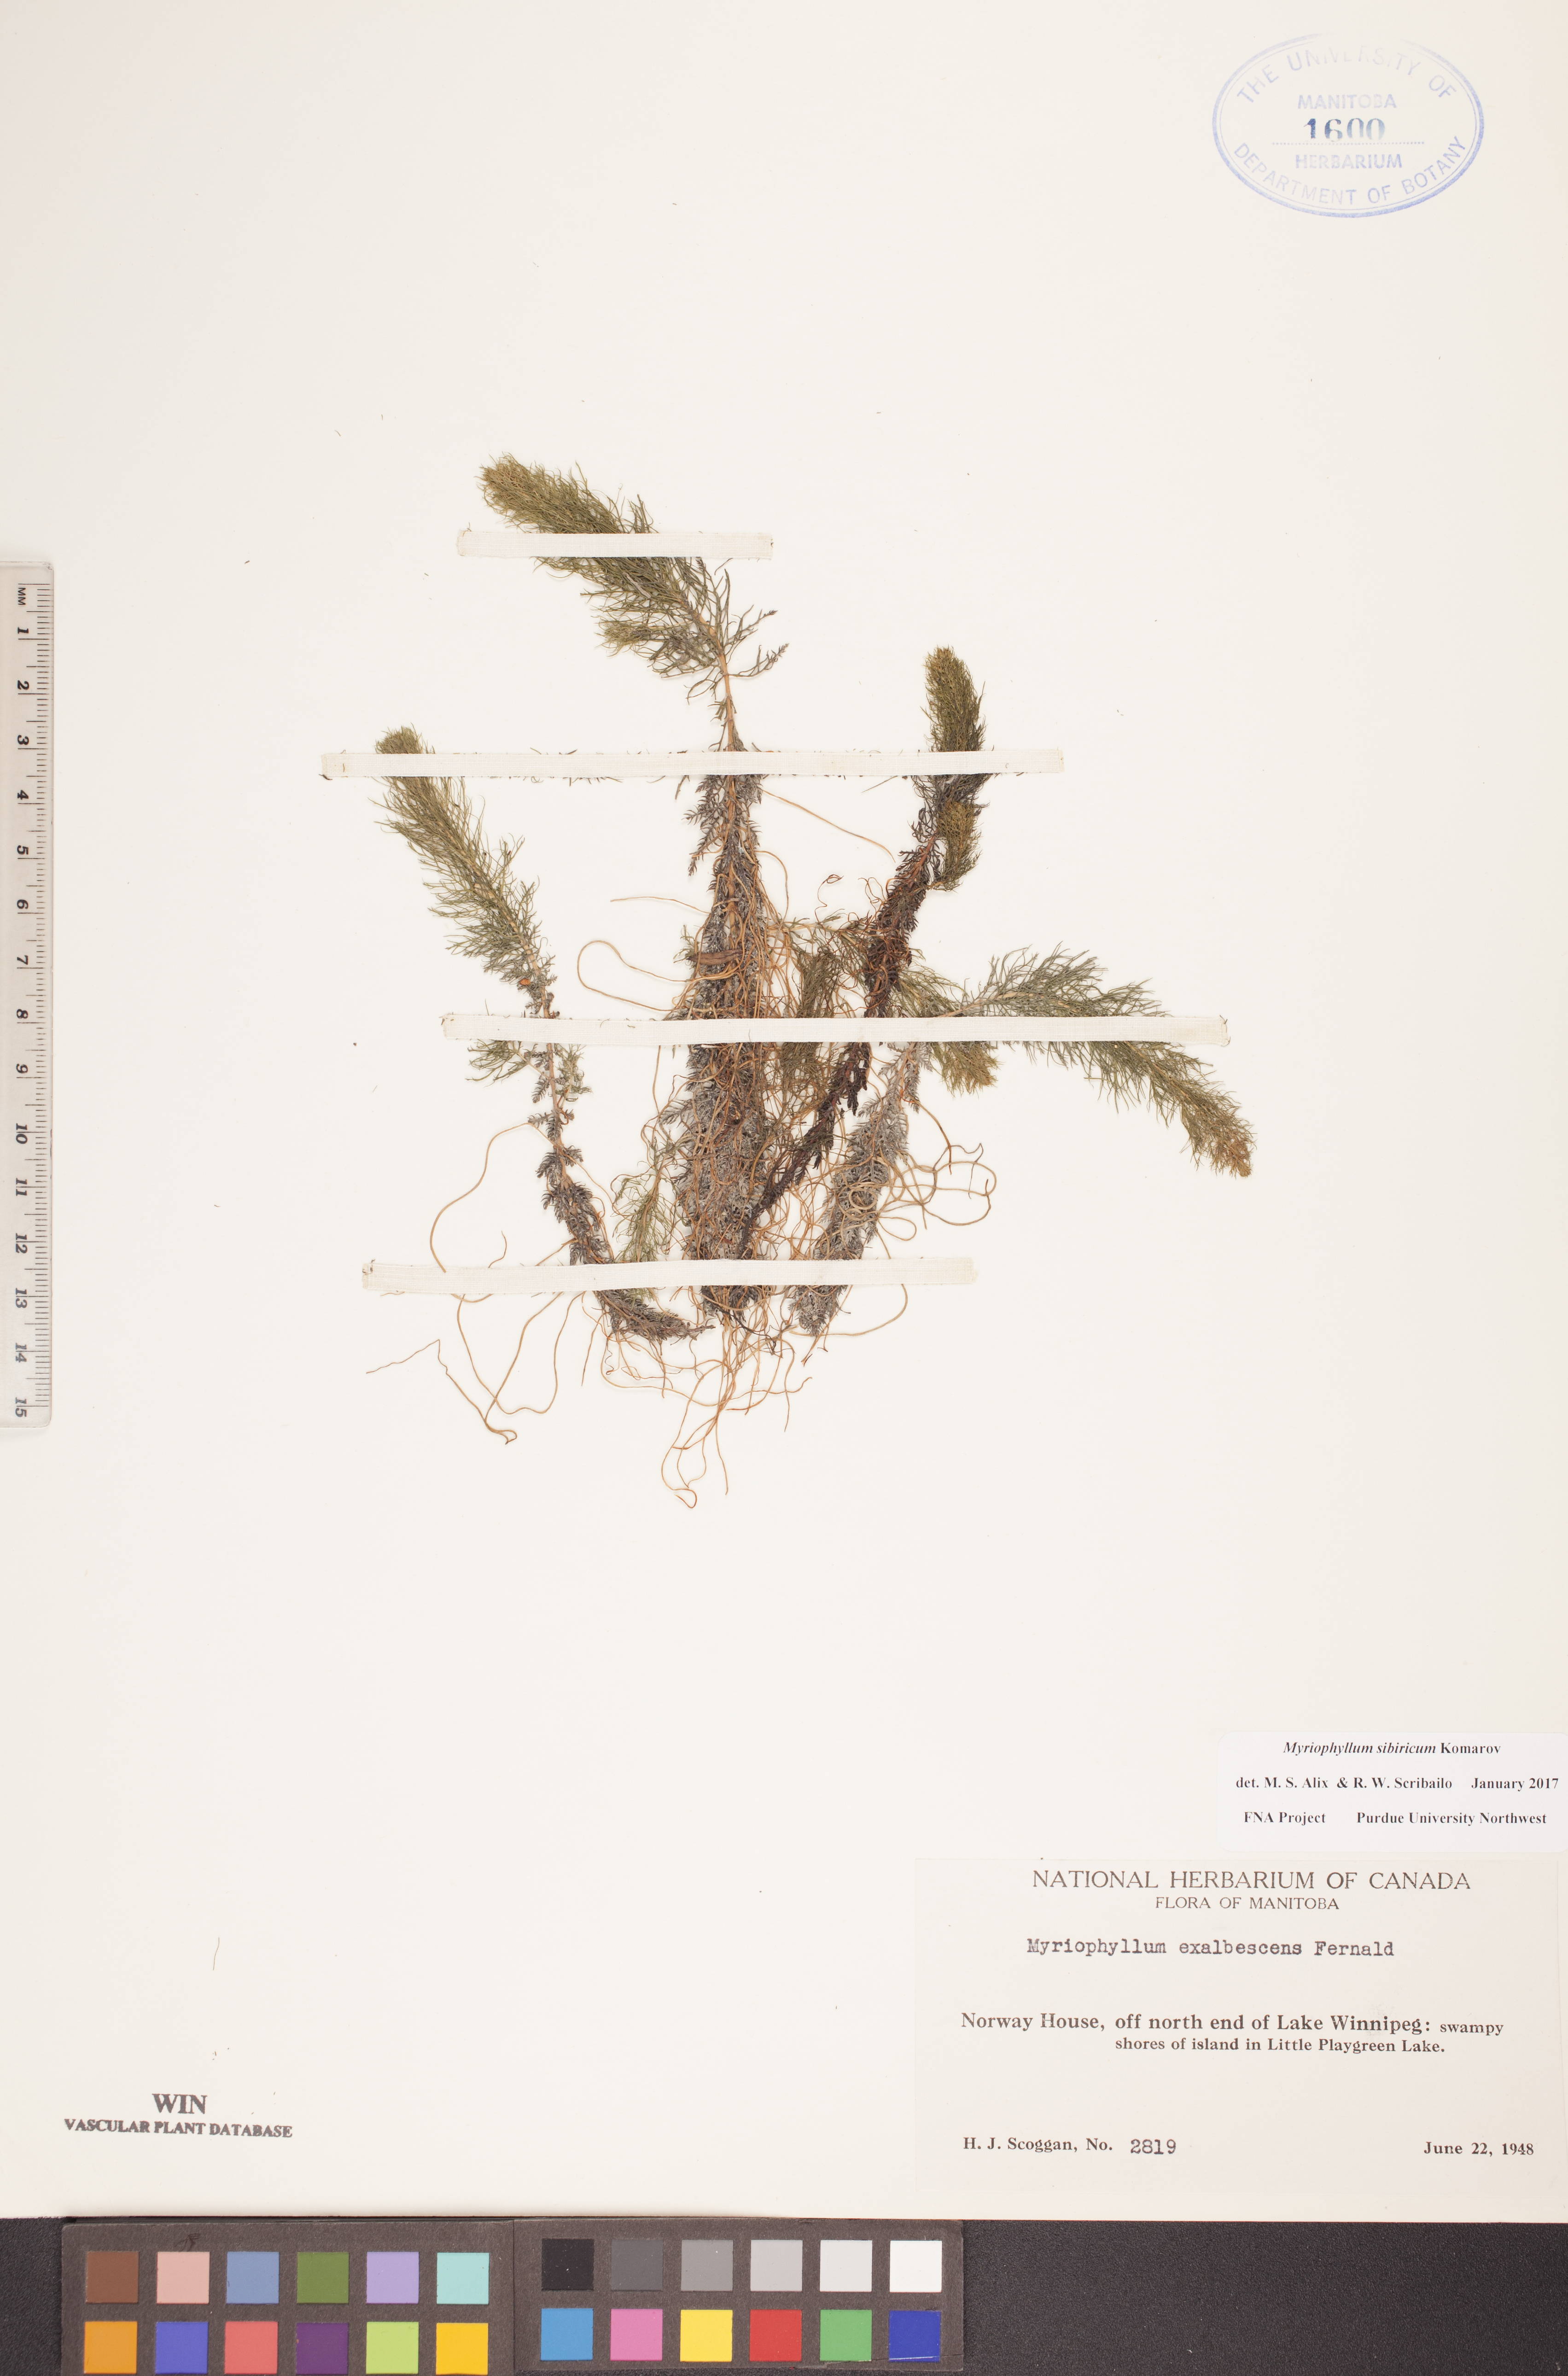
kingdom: Plantae
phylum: Tracheophyta
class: Magnoliopsida
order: Saxifragales
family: Haloragaceae
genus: Myriophyllum
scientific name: Myriophyllum sibiricum
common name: Siberian water-milfoil
